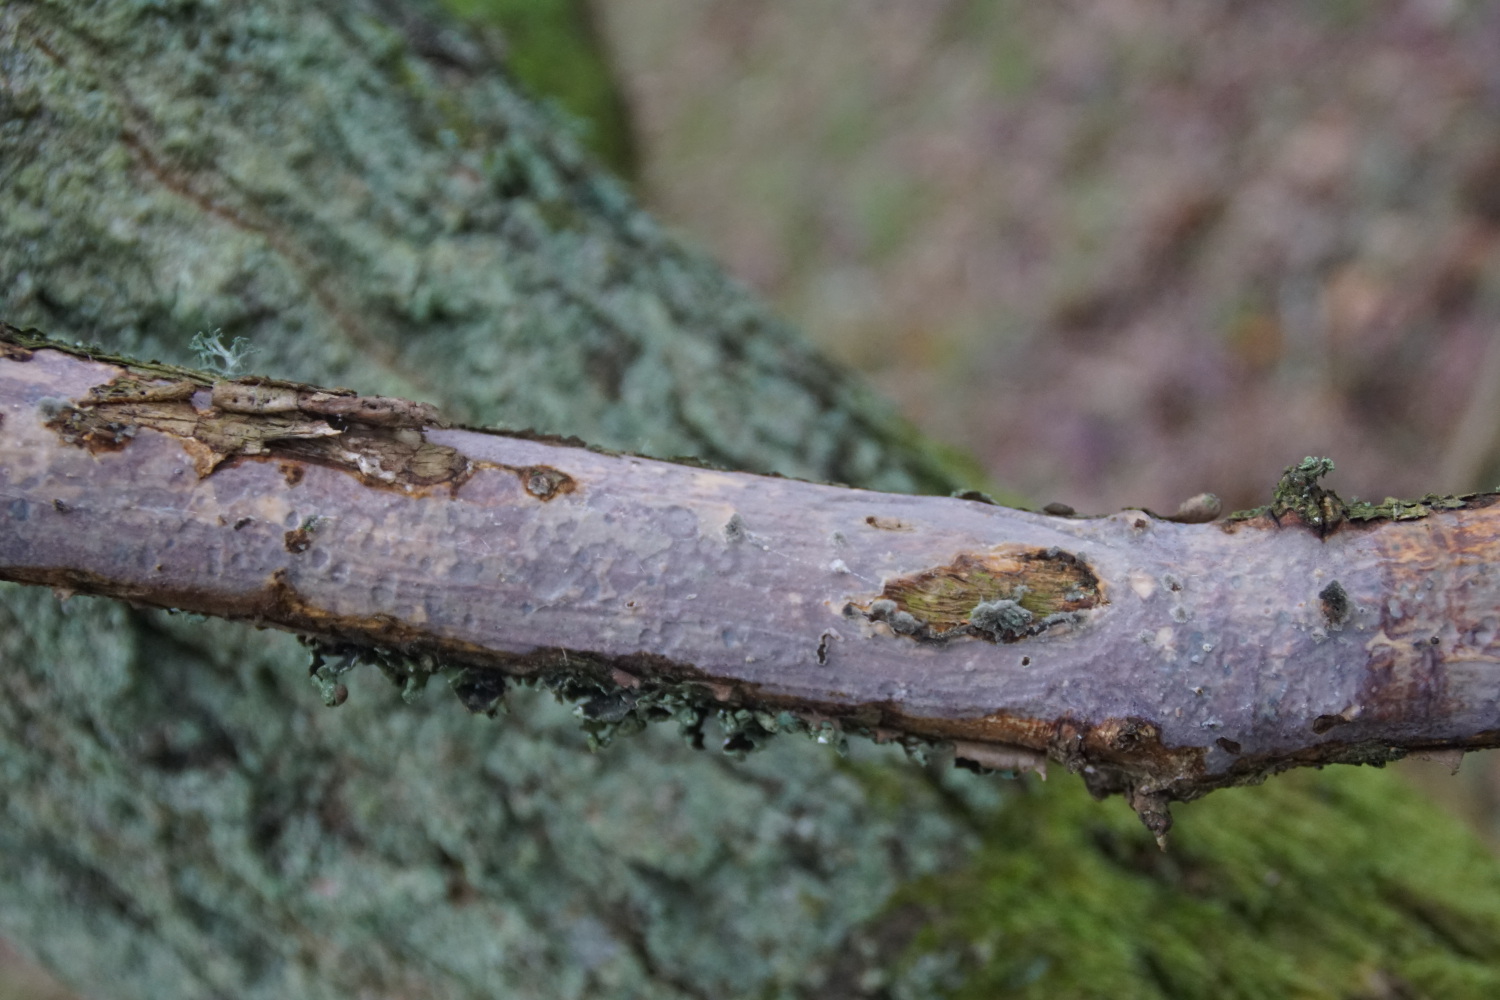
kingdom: Fungi
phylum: Basidiomycota
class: Agaricomycetes
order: Corticiales
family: Vuilleminiaceae
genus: Vuilleminia
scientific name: Vuilleminia comedens
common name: almindelig barksprænger
